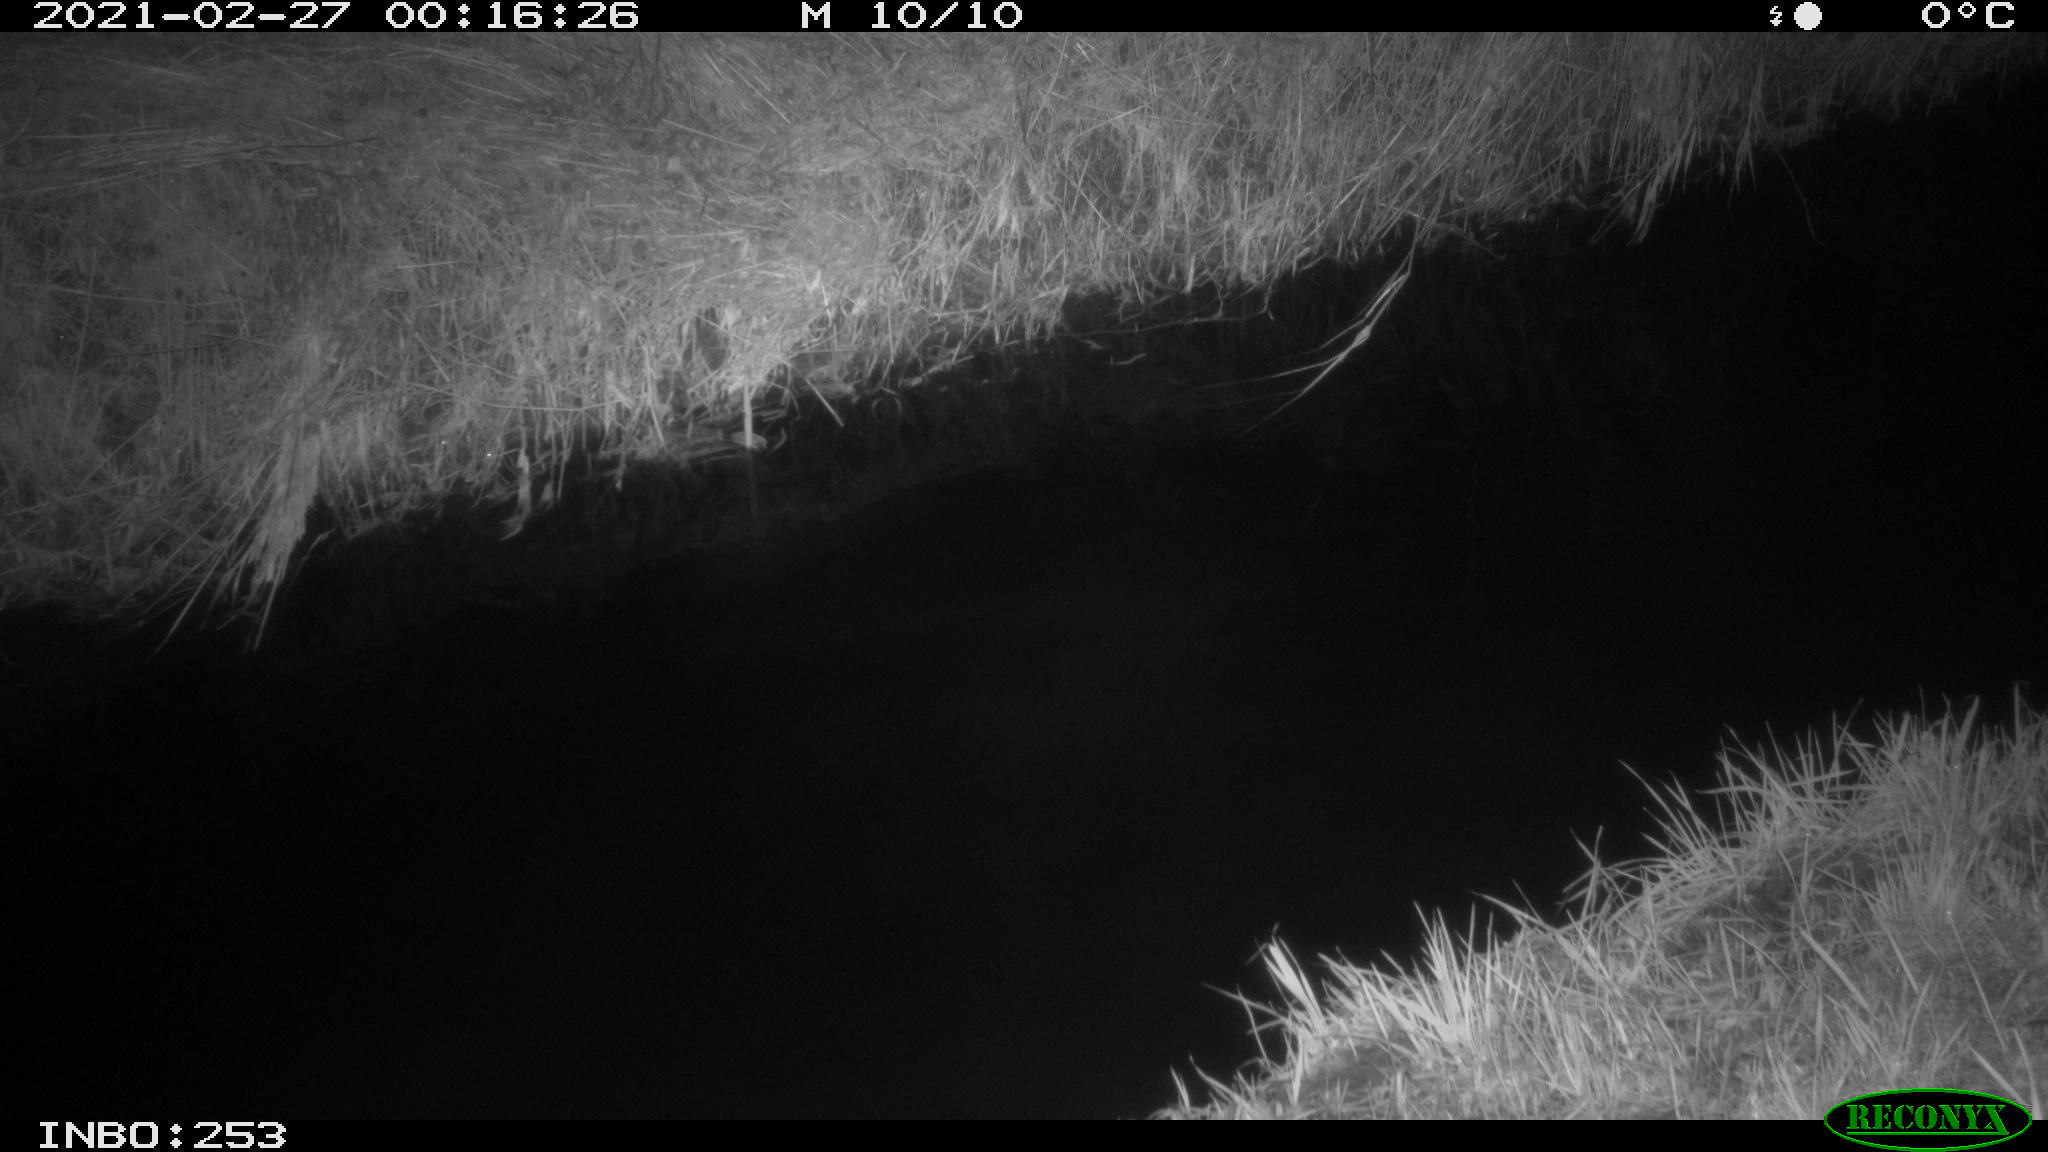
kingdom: Animalia
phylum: Chordata
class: Aves
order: Anseriformes
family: Anatidae
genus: Anas
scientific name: Anas platyrhynchos
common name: Mallard
